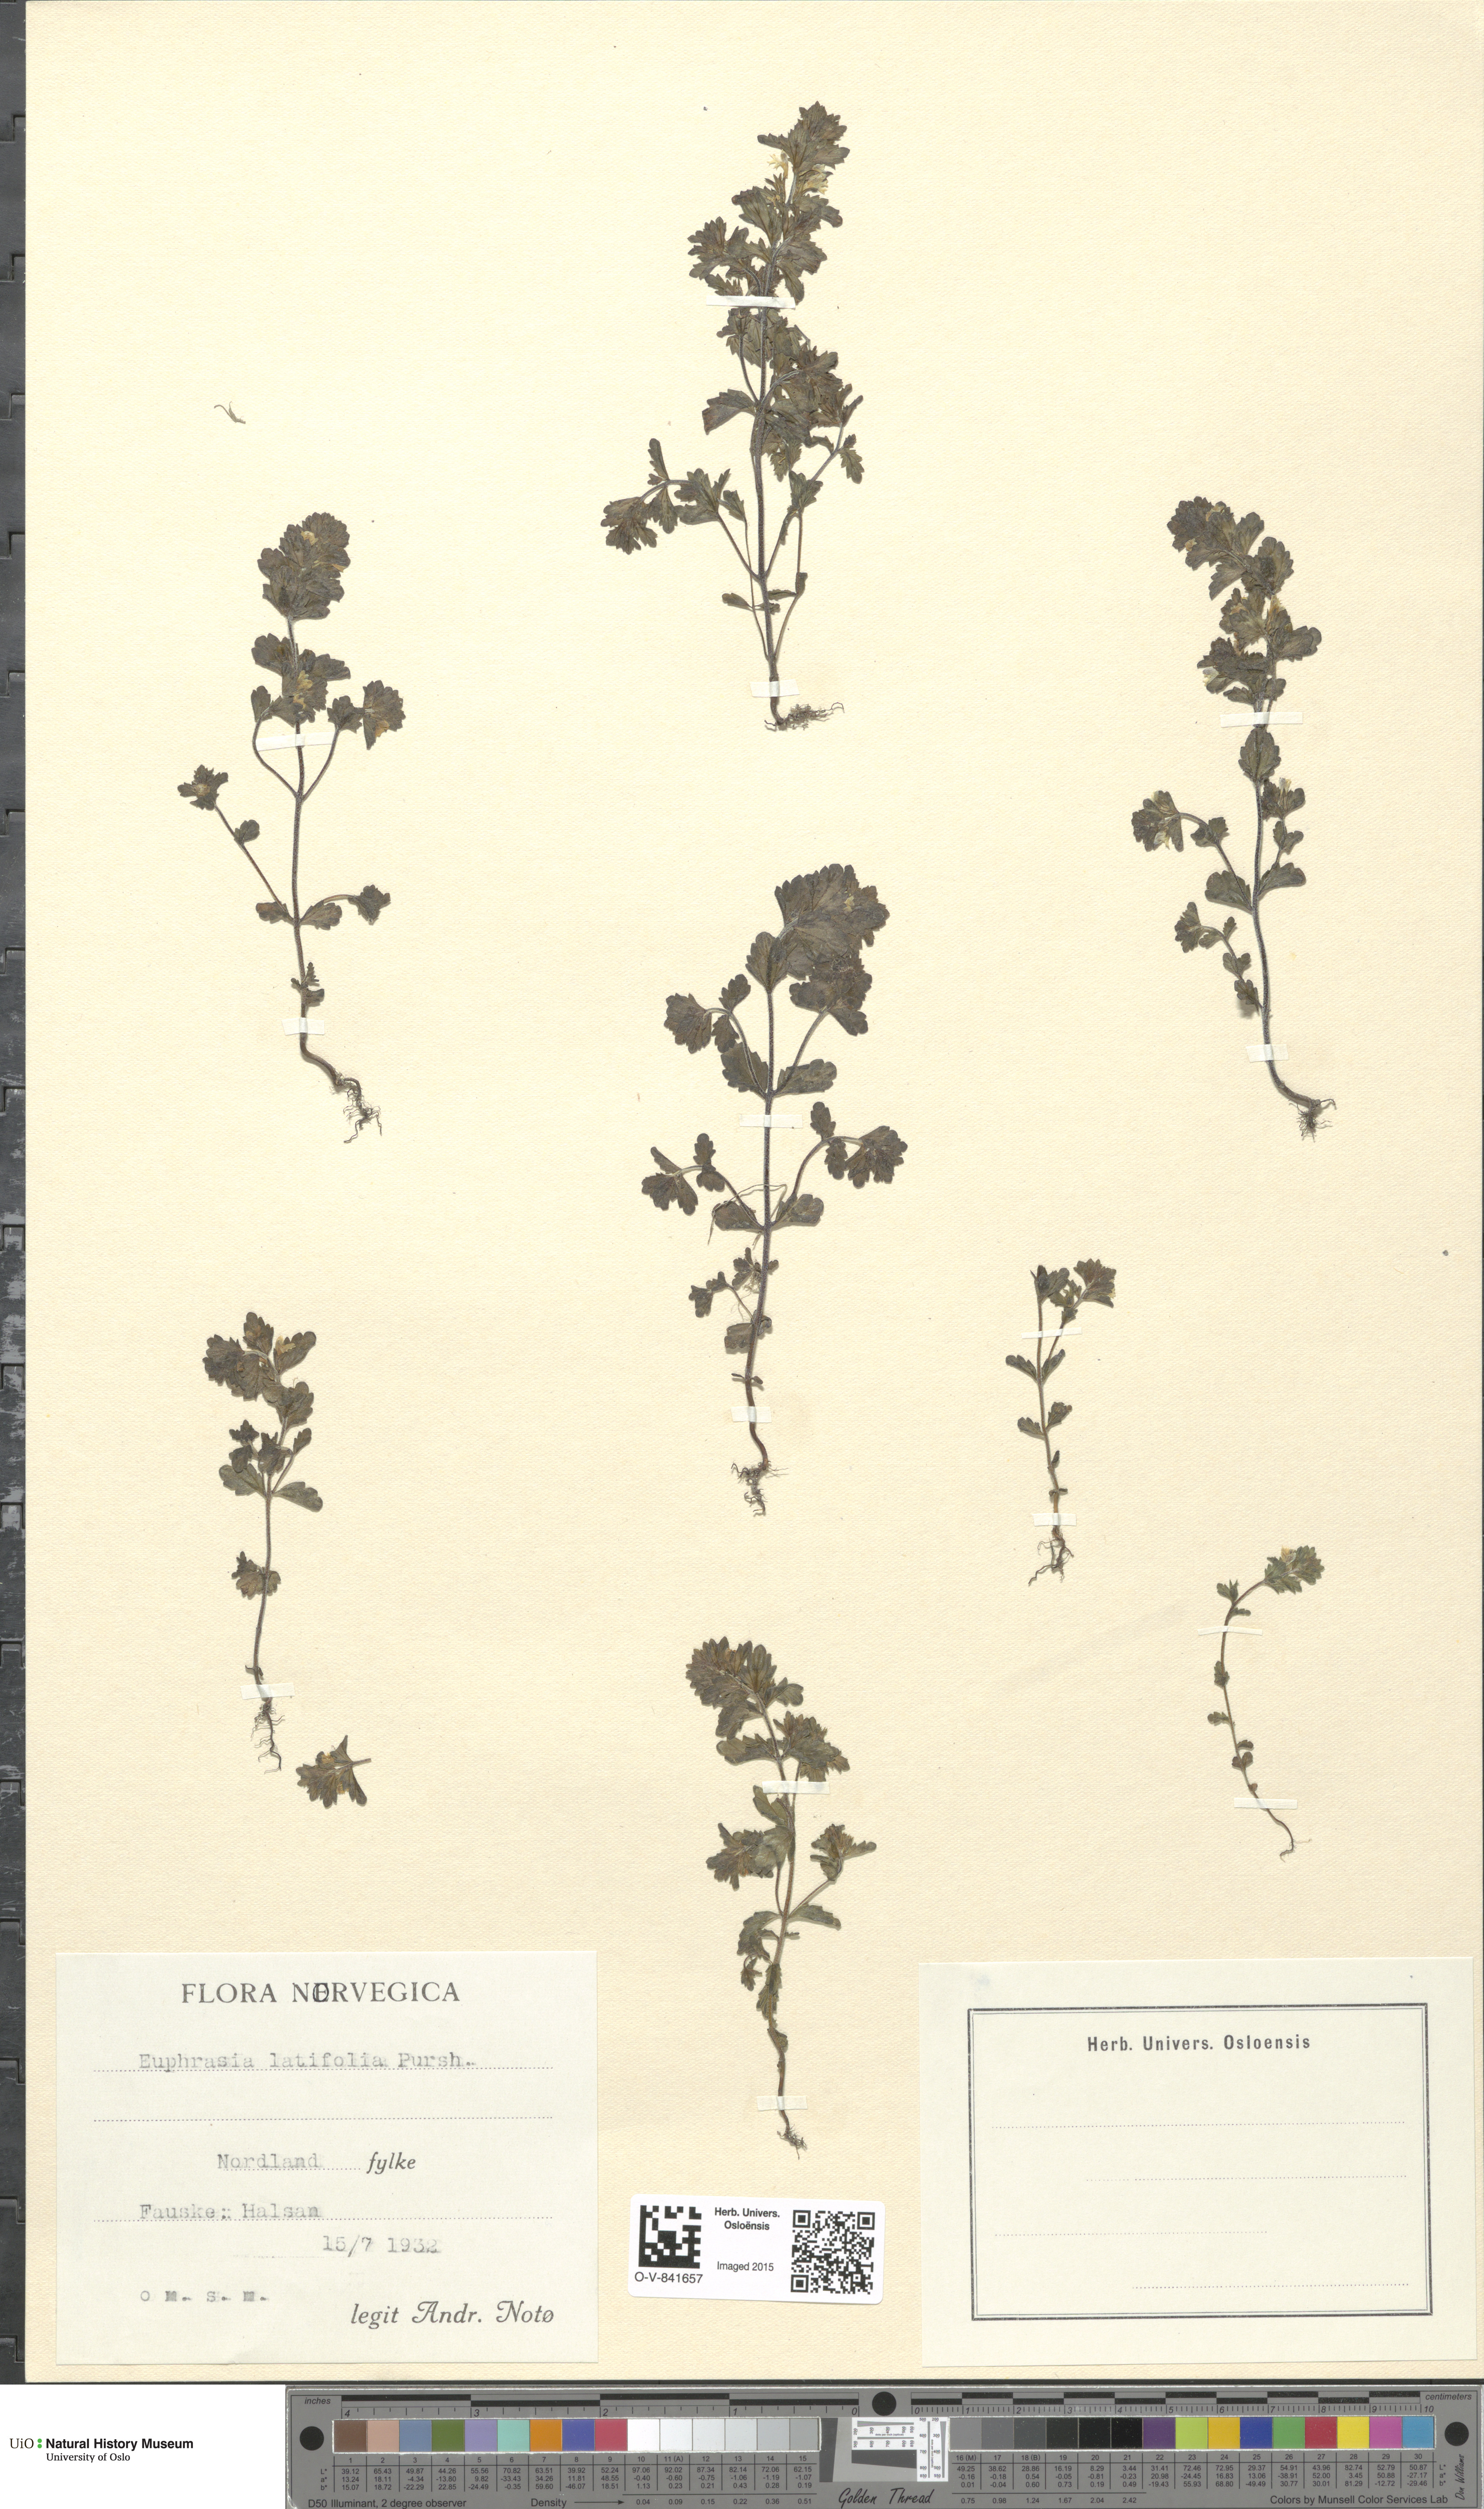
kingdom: Plantae
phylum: Tracheophyta
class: Magnoliopsida
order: Lamiales
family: Orobanchaceae
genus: Euphrasia
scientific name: Euphrasia wettsteinii
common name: Wettstein's eyebright
